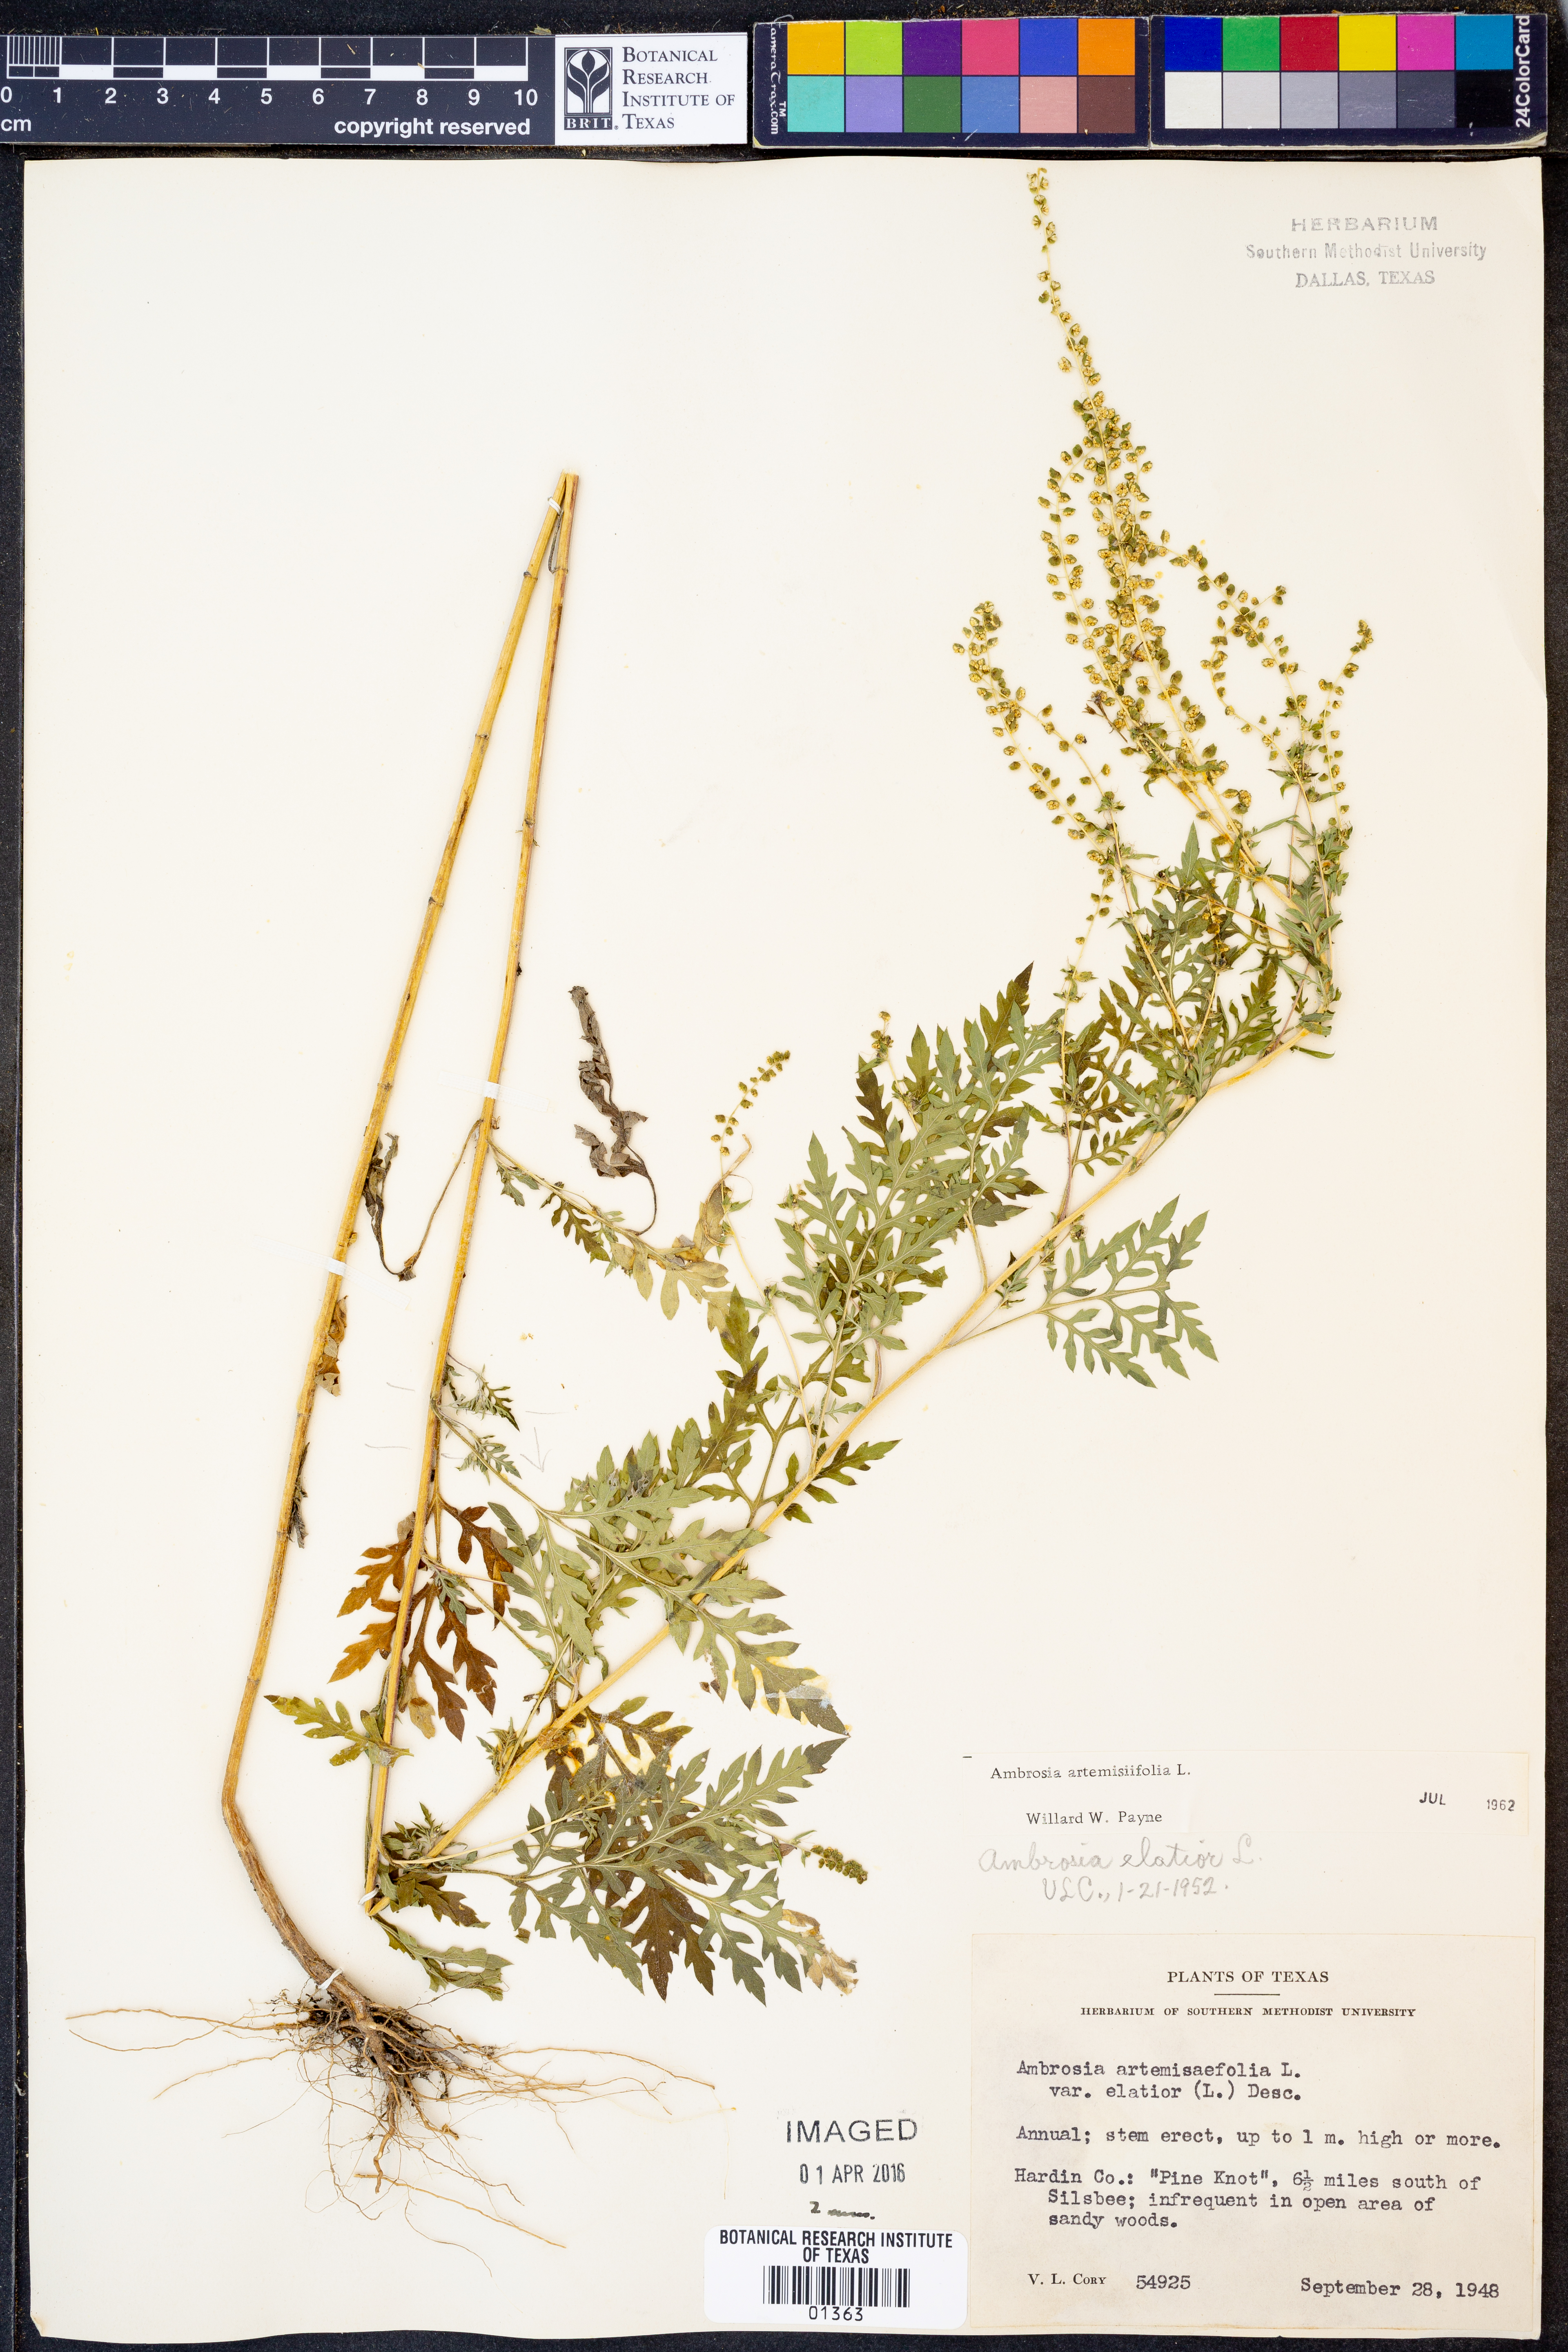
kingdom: Plantae
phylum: Tracheophyta
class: Magnoliopsida
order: Asterales
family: Asteraceae
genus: Ambrosia
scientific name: Ambrosia artemisiifolia
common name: Annual ragweed
